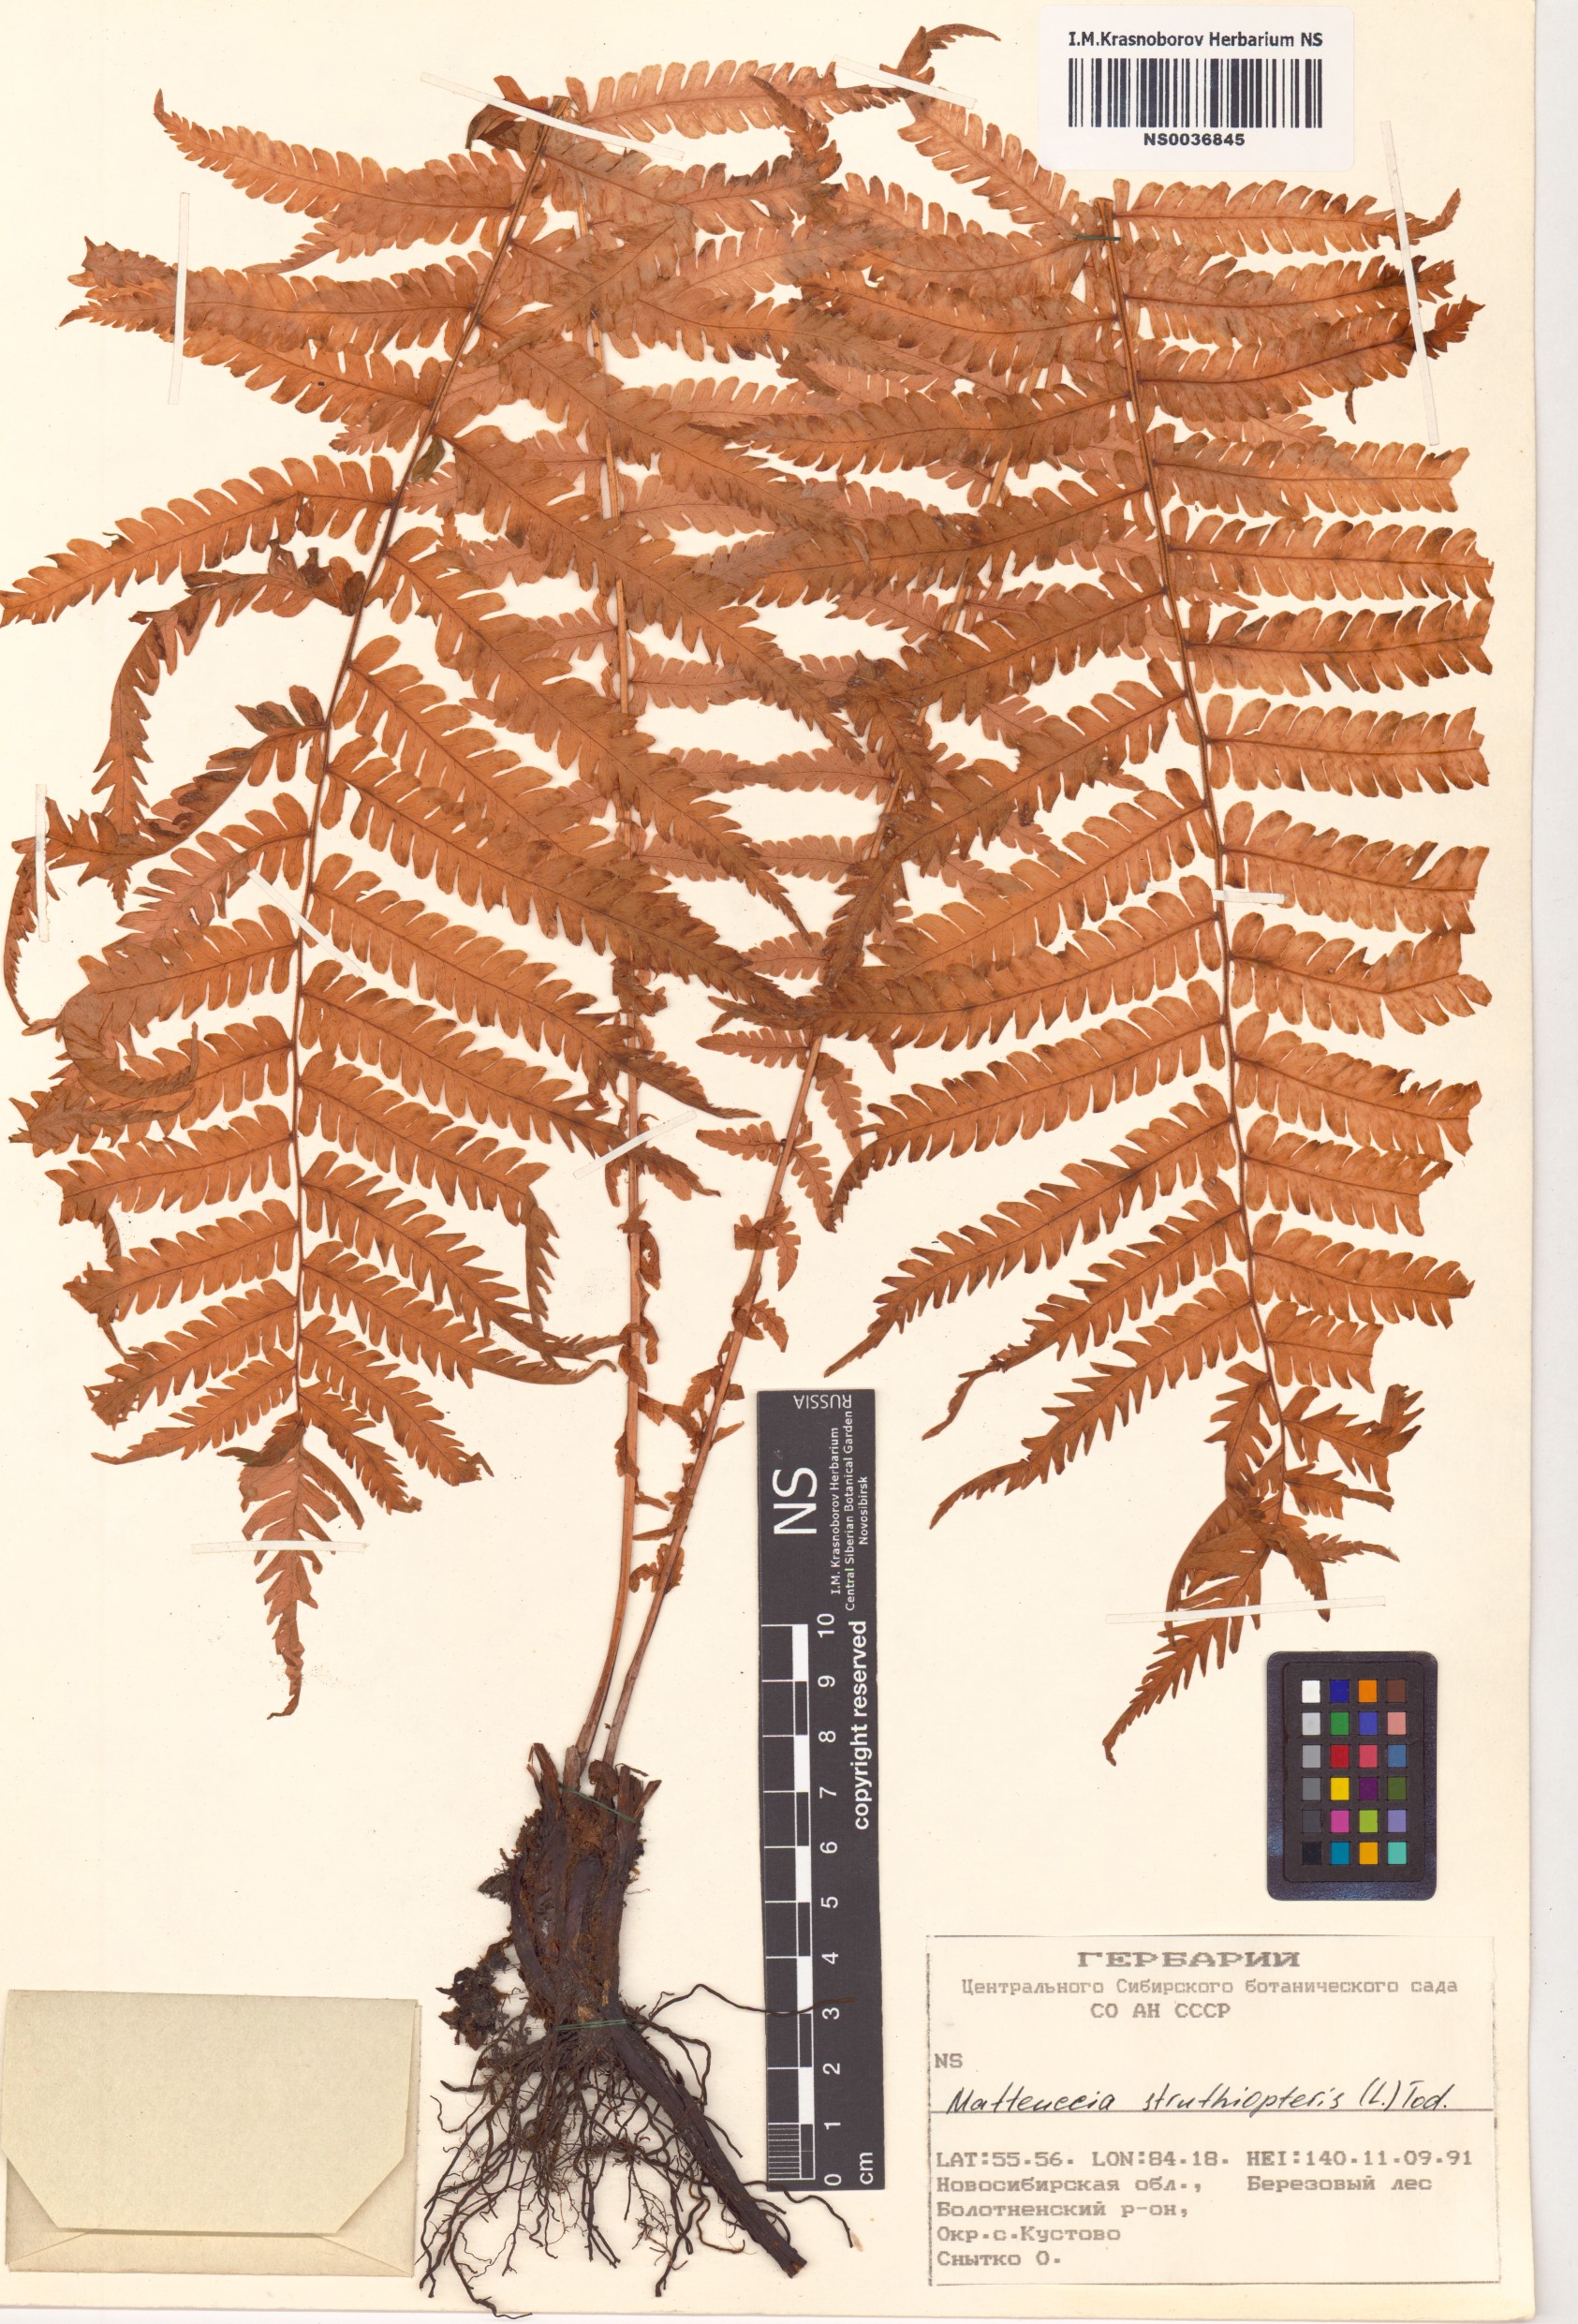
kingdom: Plantae
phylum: Tracheophyta
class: Polypodiopsida
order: Polypodiales
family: Onocleaceae
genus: Matteuccia
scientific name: Matteuccia struthiopteris
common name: Ostrich fern
